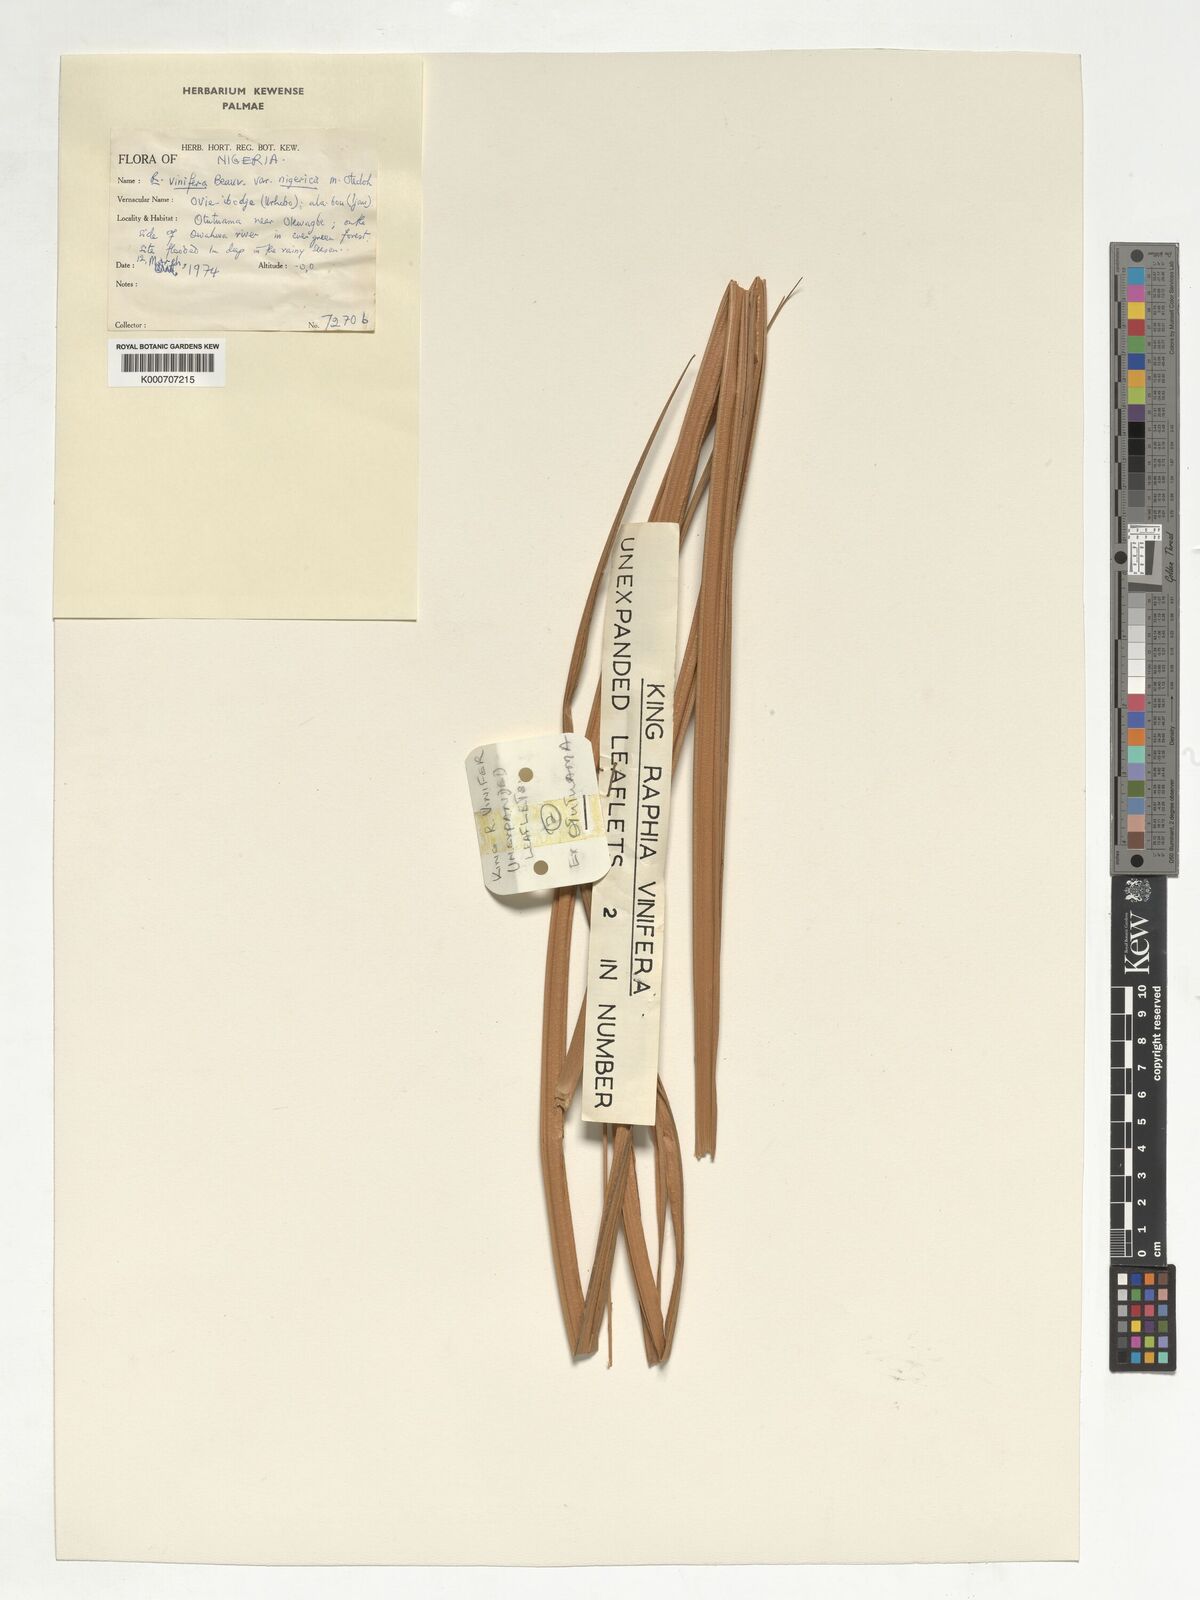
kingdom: Plantae
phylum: Tracheophyta
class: Liliopsida
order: Arecales
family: Arecaceae
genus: Raphia
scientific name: Raphia vinifera
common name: Raphia palm
